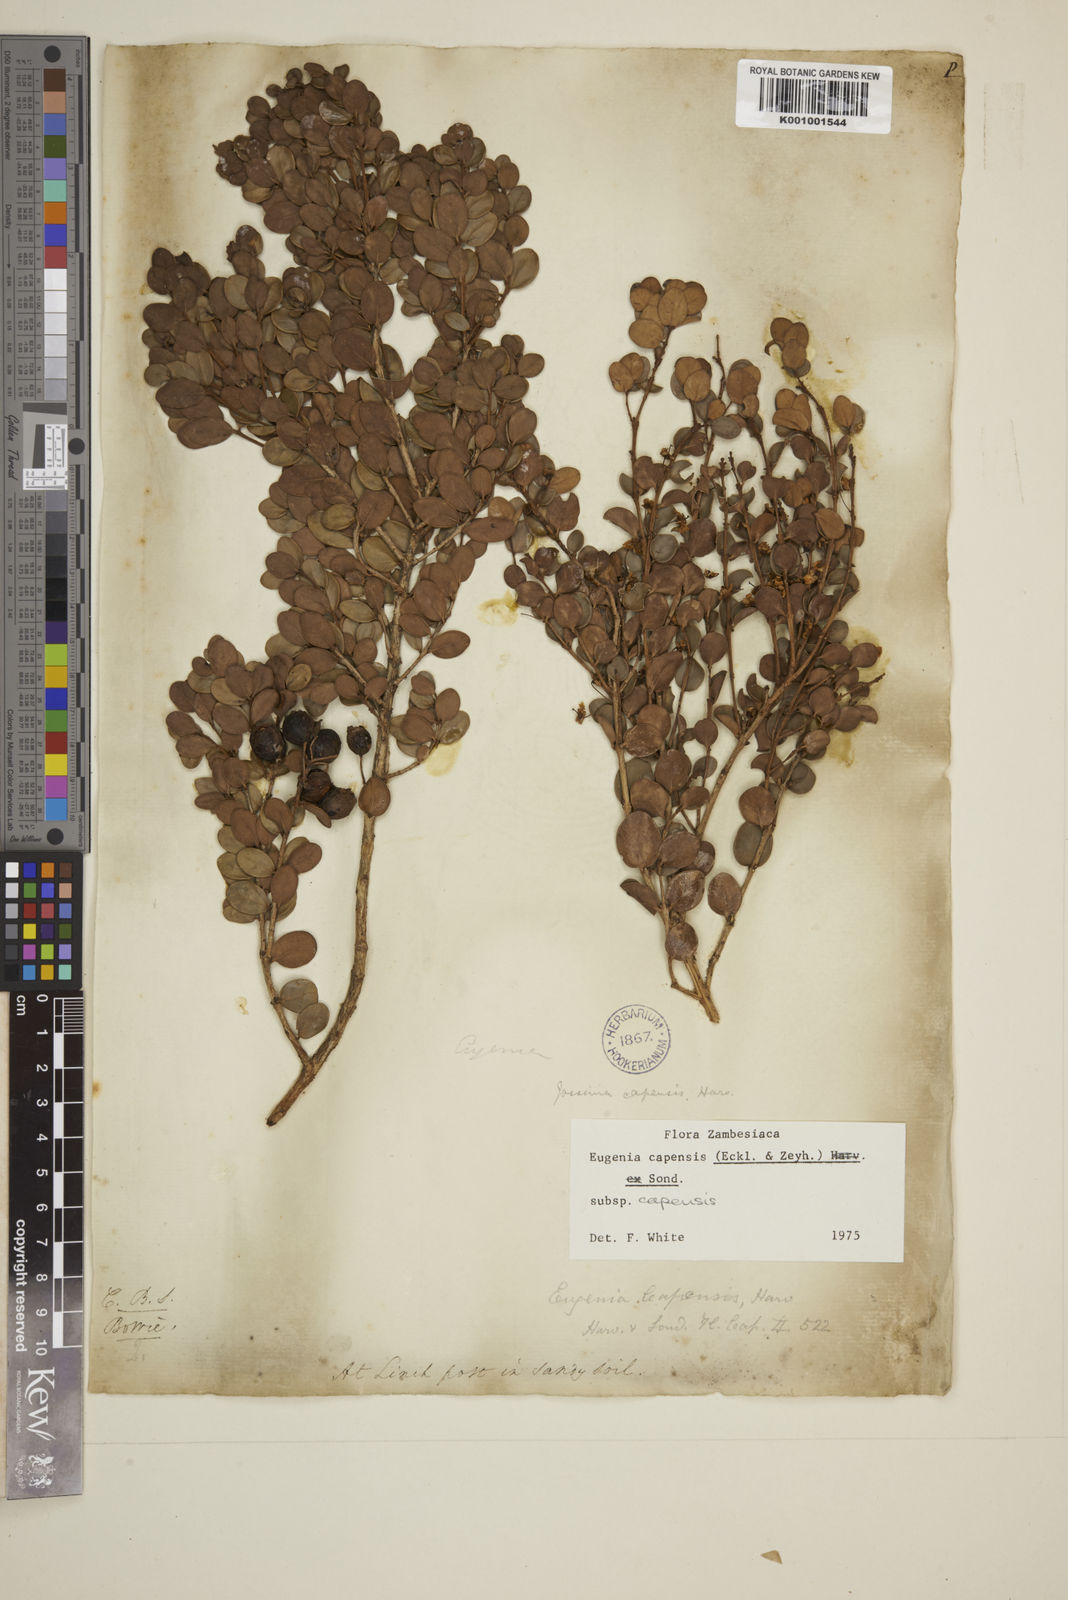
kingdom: Plantae
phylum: Tracheophyta
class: Magnoliopsida
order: Myrtales
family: Myrtaceae
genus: Eugenia
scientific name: Eugenia capensis
